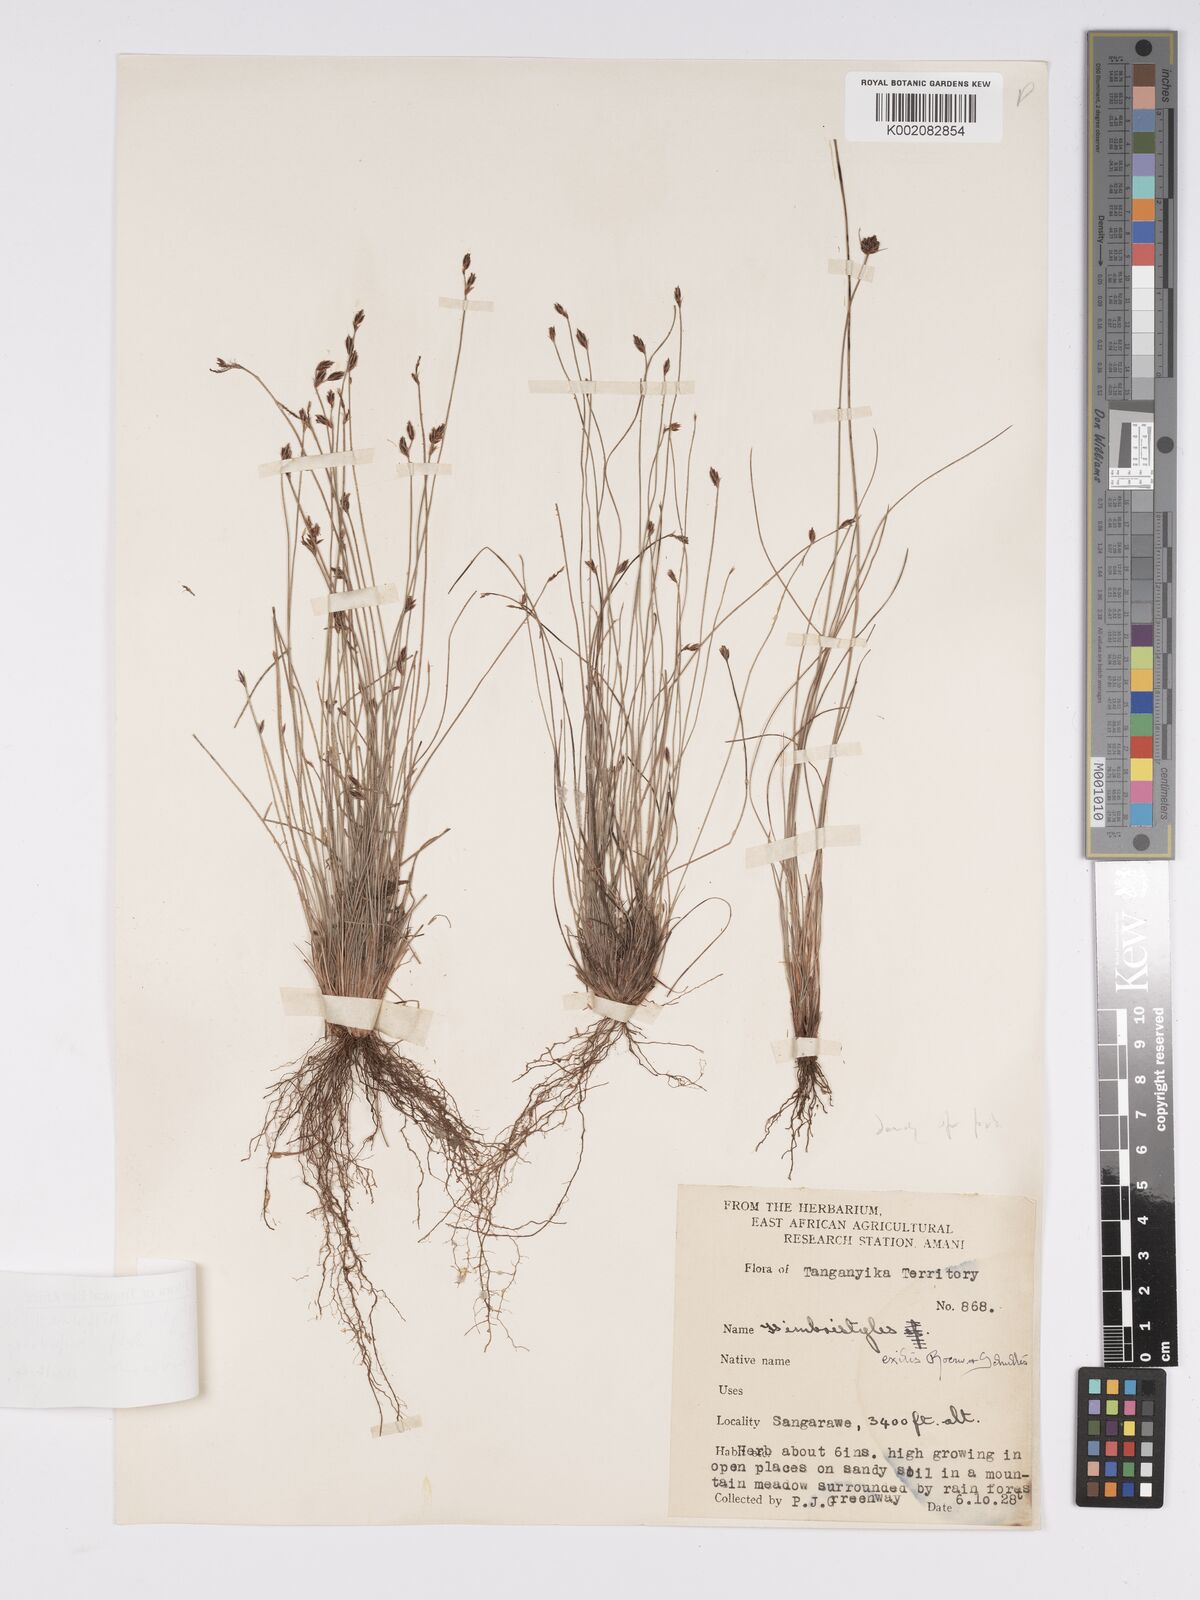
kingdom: Plantae
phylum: Tracheophyta
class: Liliopsida
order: Poales
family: Cyperaceae
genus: Bulbostylis
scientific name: Bulbostylis hispidula
